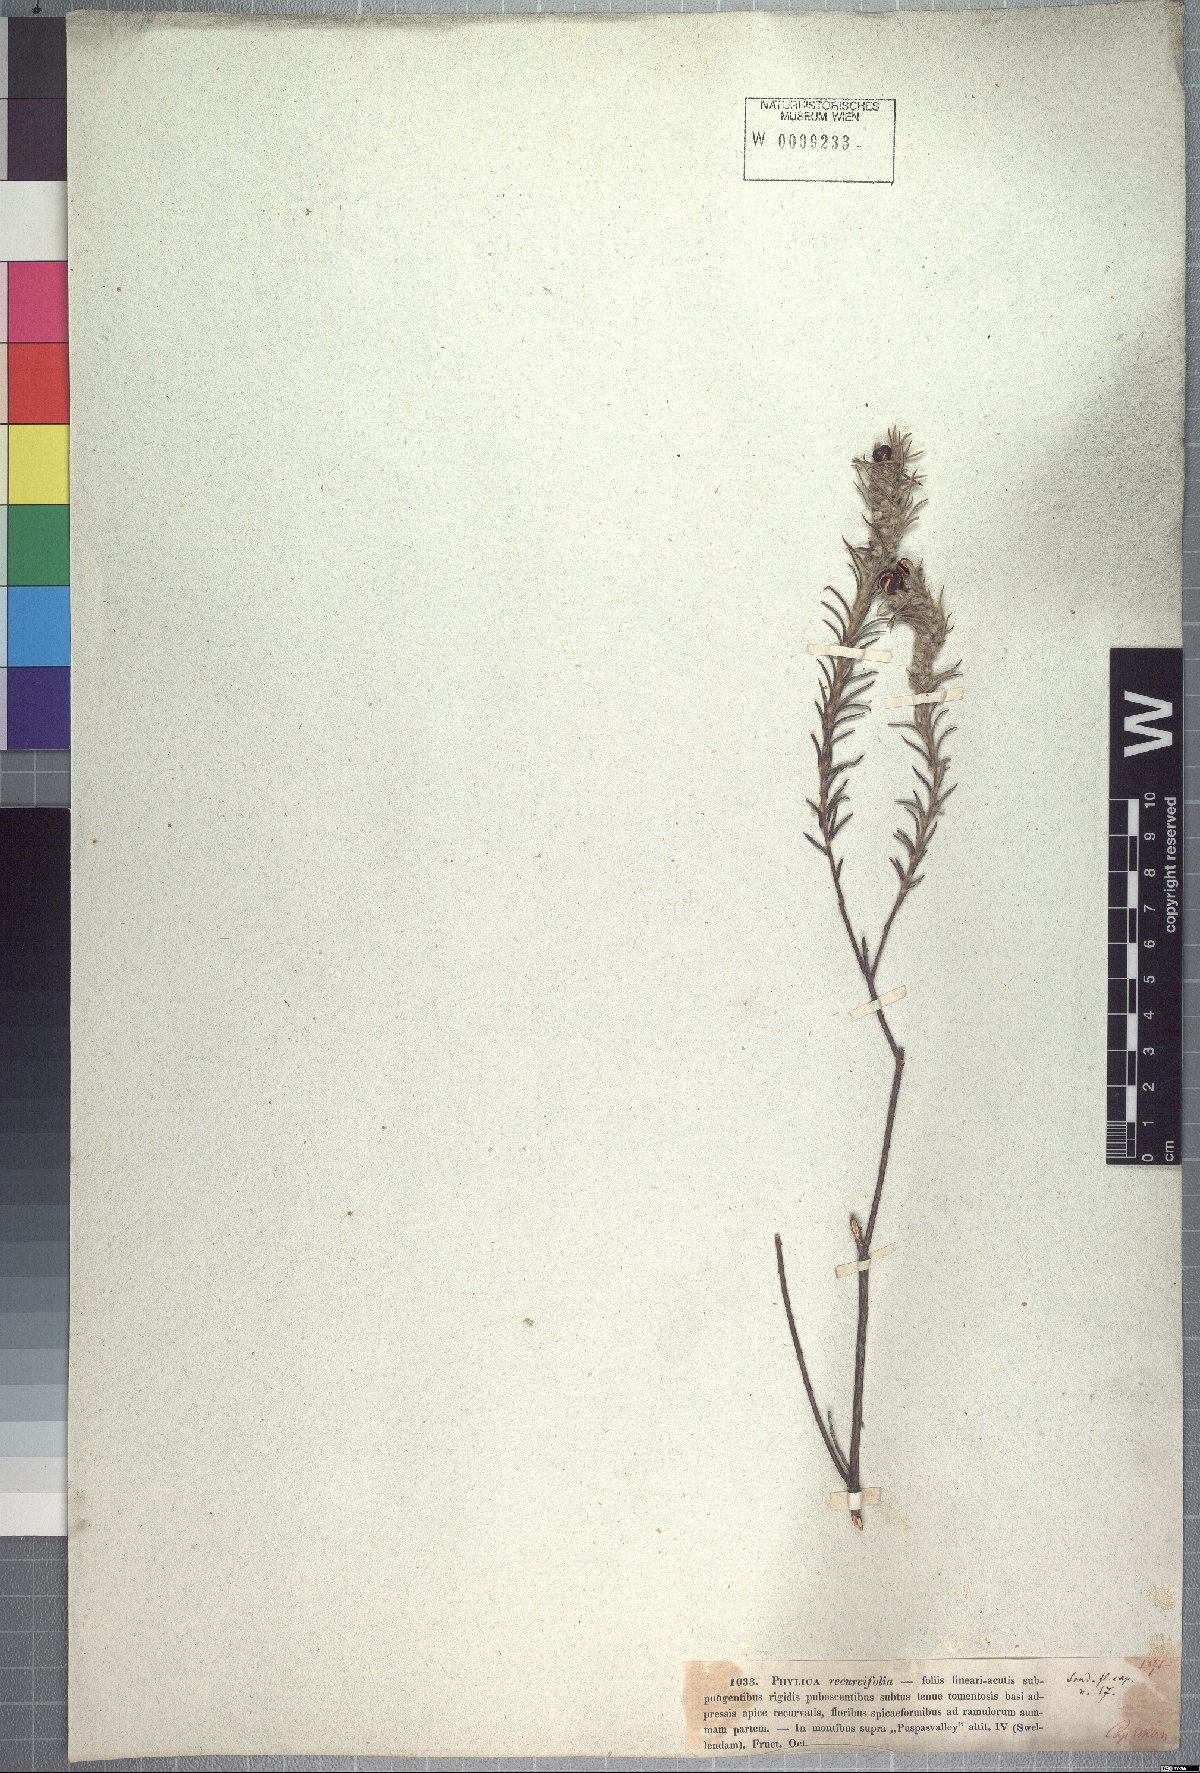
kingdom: Plantae
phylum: Tracheophyta
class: Magnoliopsida
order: Rosales
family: Rhamnaceae
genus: Phylica
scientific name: Phylica recurvifolia
